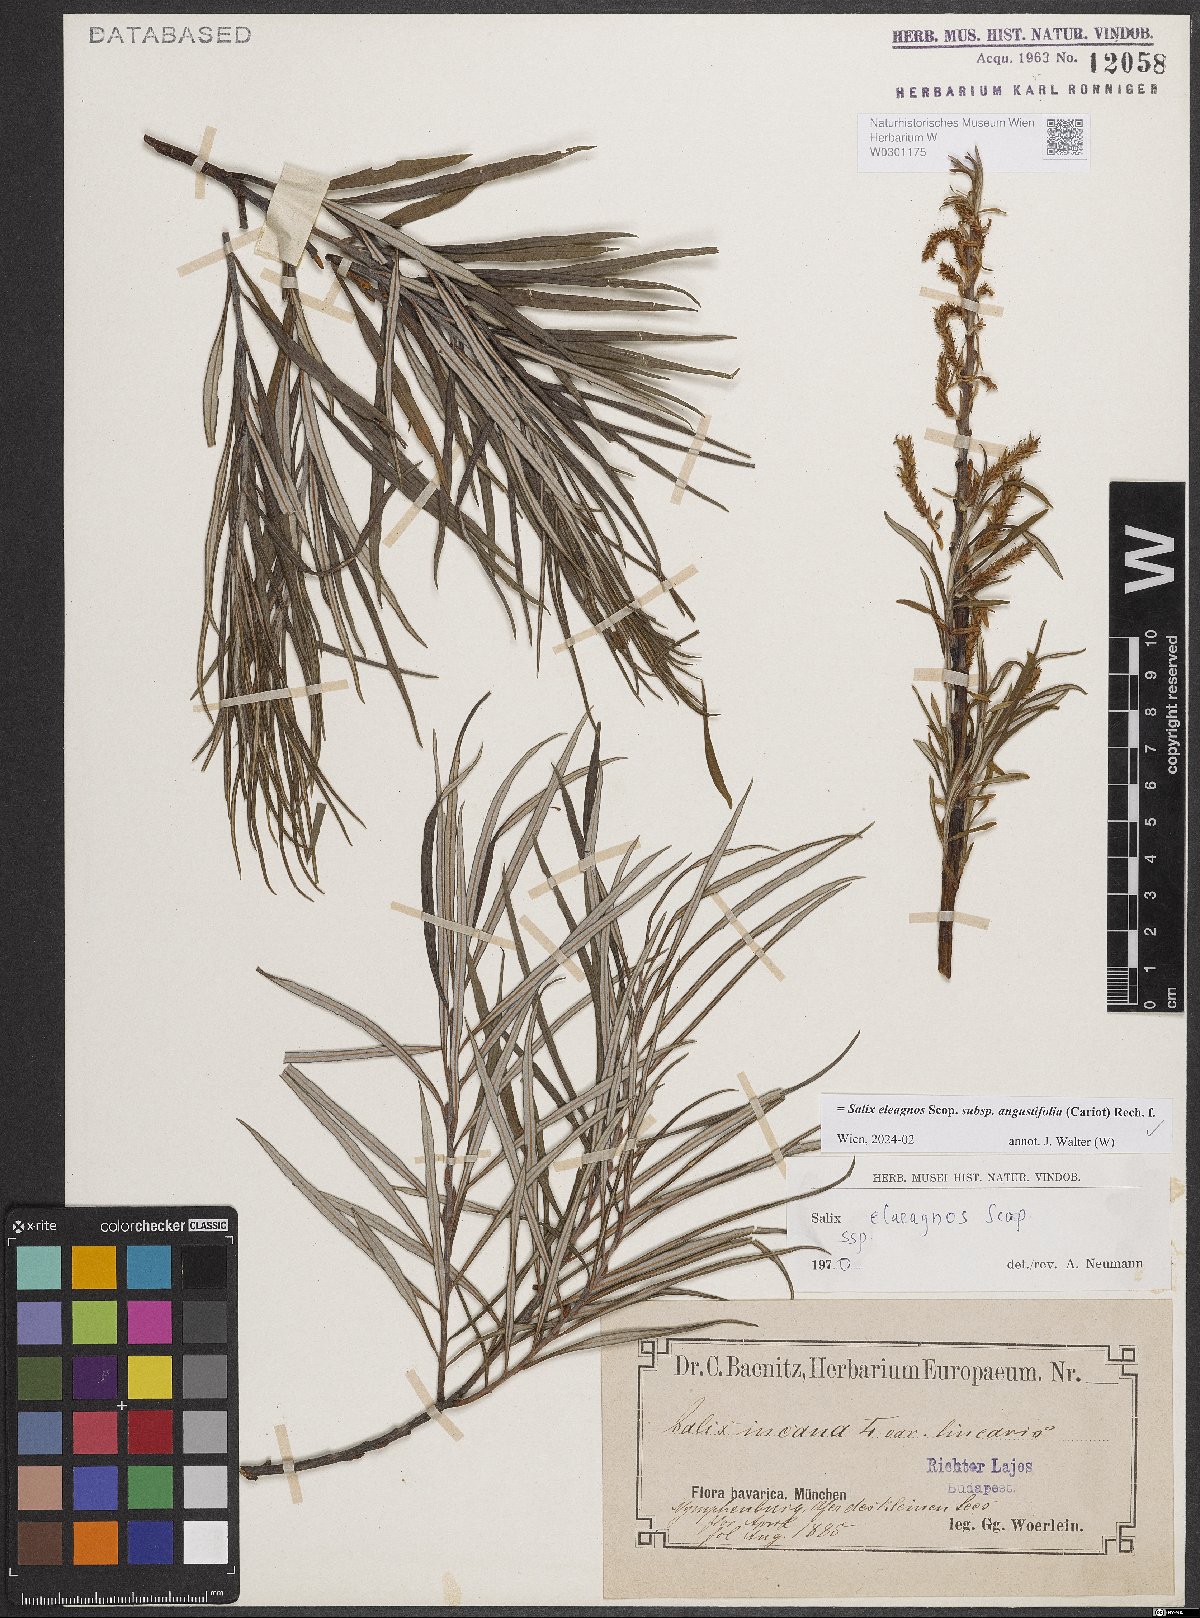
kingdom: Plantae
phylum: Tracheophyta
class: Magnoliopsida
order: Malpighiales
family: Salicaceae
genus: Salix
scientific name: Salix eleagnos
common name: Elaeagnus willow
